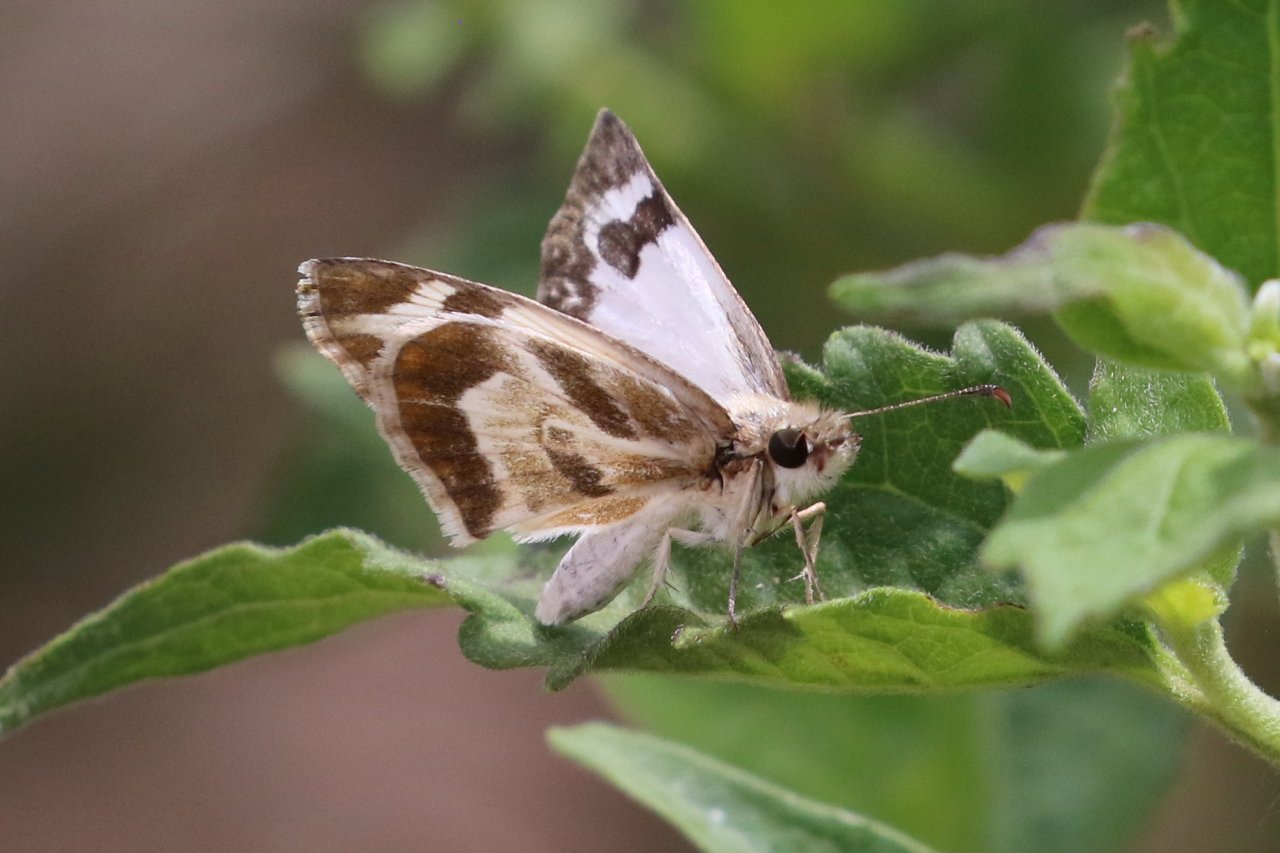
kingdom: Animalia
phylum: Arthropoda
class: Insecta
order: Lepidoptera
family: Hesperiidae
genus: Heliopetes
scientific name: Heliopetes macaira
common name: Turk's-cap White-Skipper
